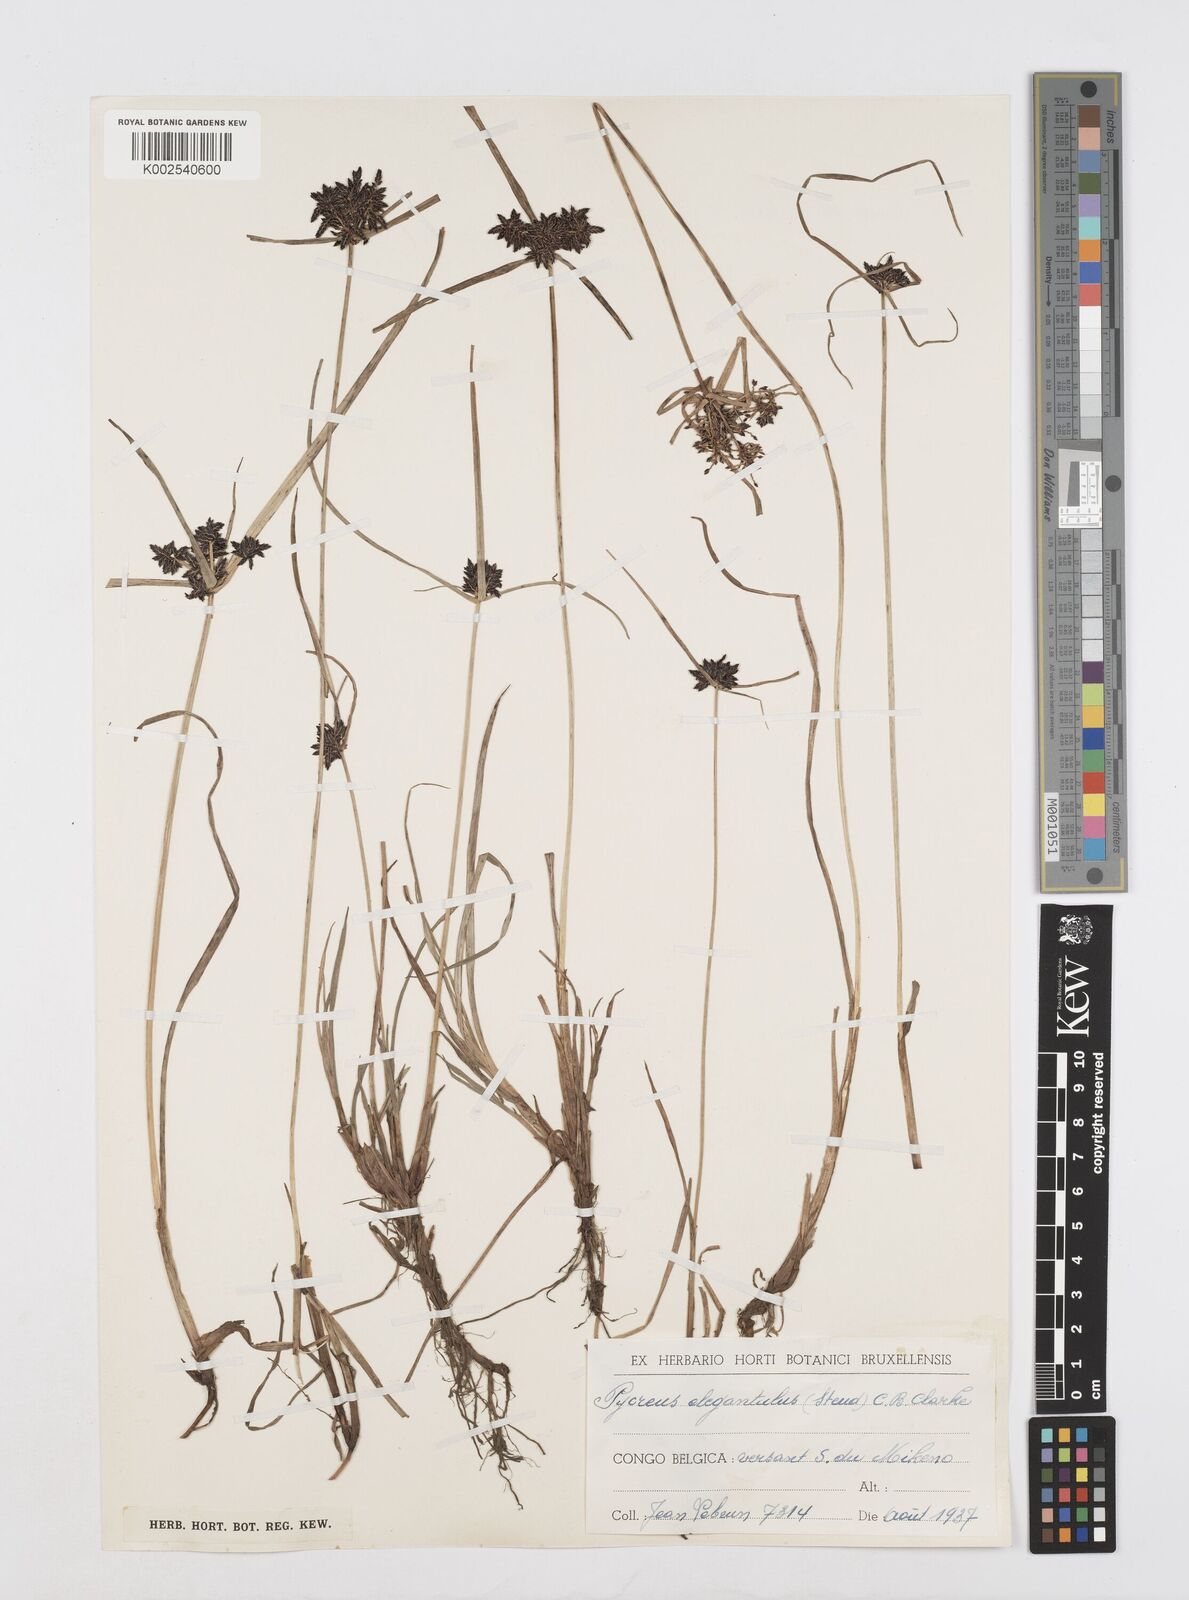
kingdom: Plantae
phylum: Tracheophyta
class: Liliopsida
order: Poales
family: Cyperaceae
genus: Cyperus
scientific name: Cyperus elegantulus
